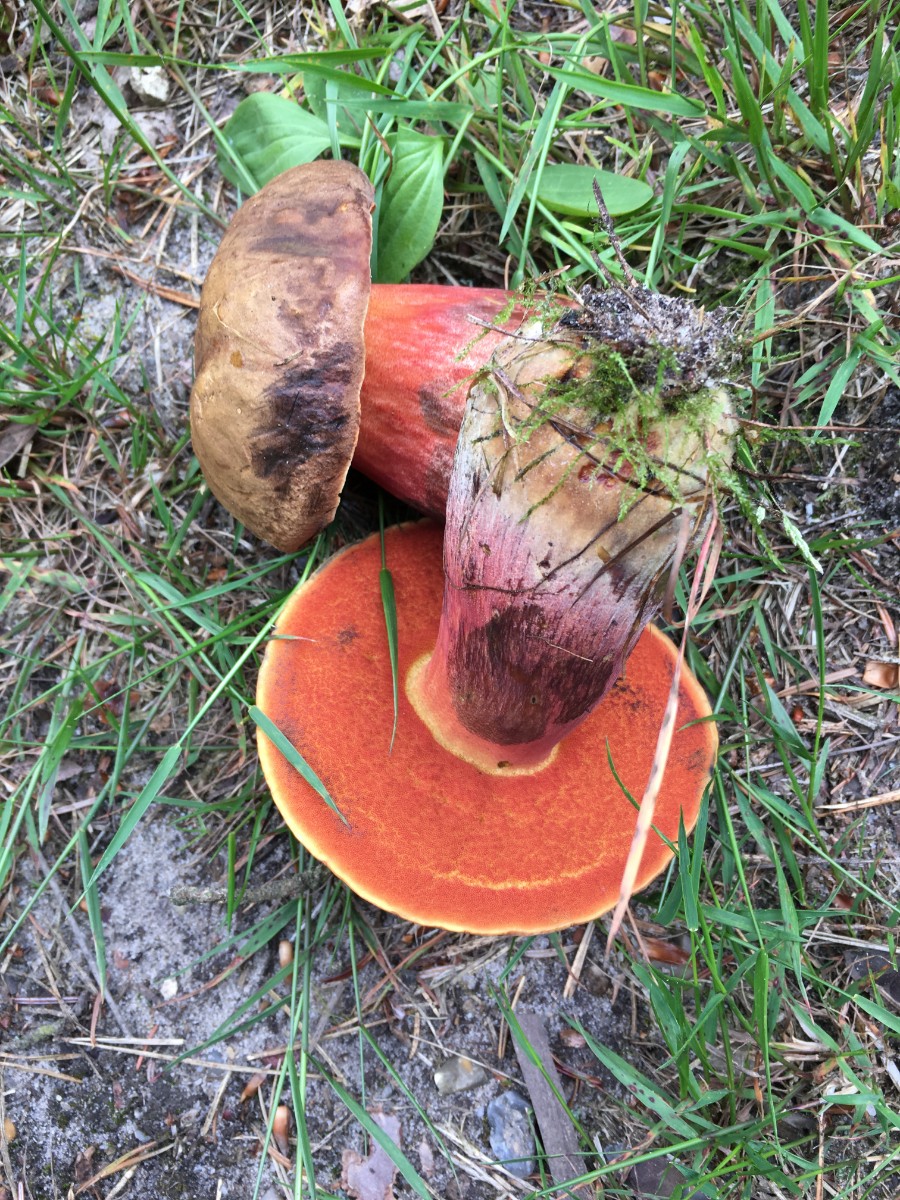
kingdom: Fungi
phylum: Basidiomycota
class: Agaricomycetes
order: Boletales
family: Boletaceae
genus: Neoboletus
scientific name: Neoboletus erythropus
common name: punktstokket indigorørhat
